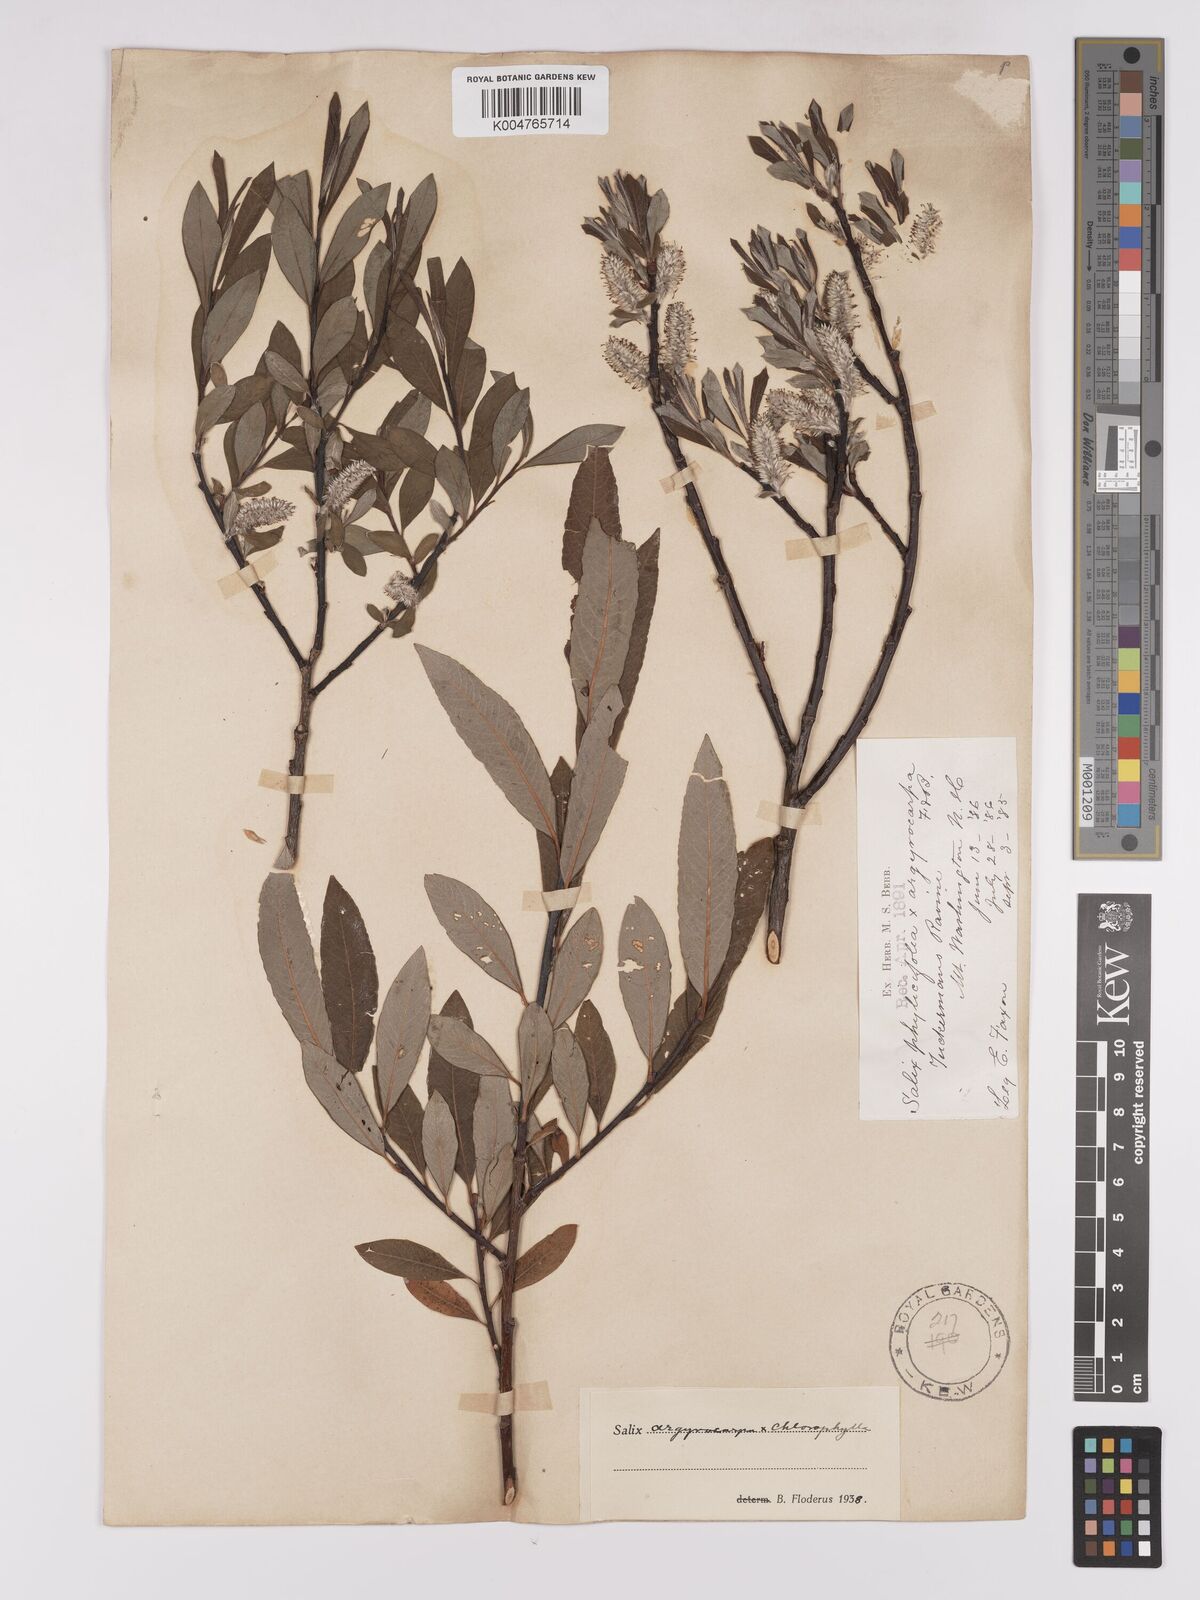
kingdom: Plantae
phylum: Tracheophyta
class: Magnoliopsida
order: Malpighiales
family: Salicaceae
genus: Salix
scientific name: Salix argyrocarpa
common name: Labrador willow
